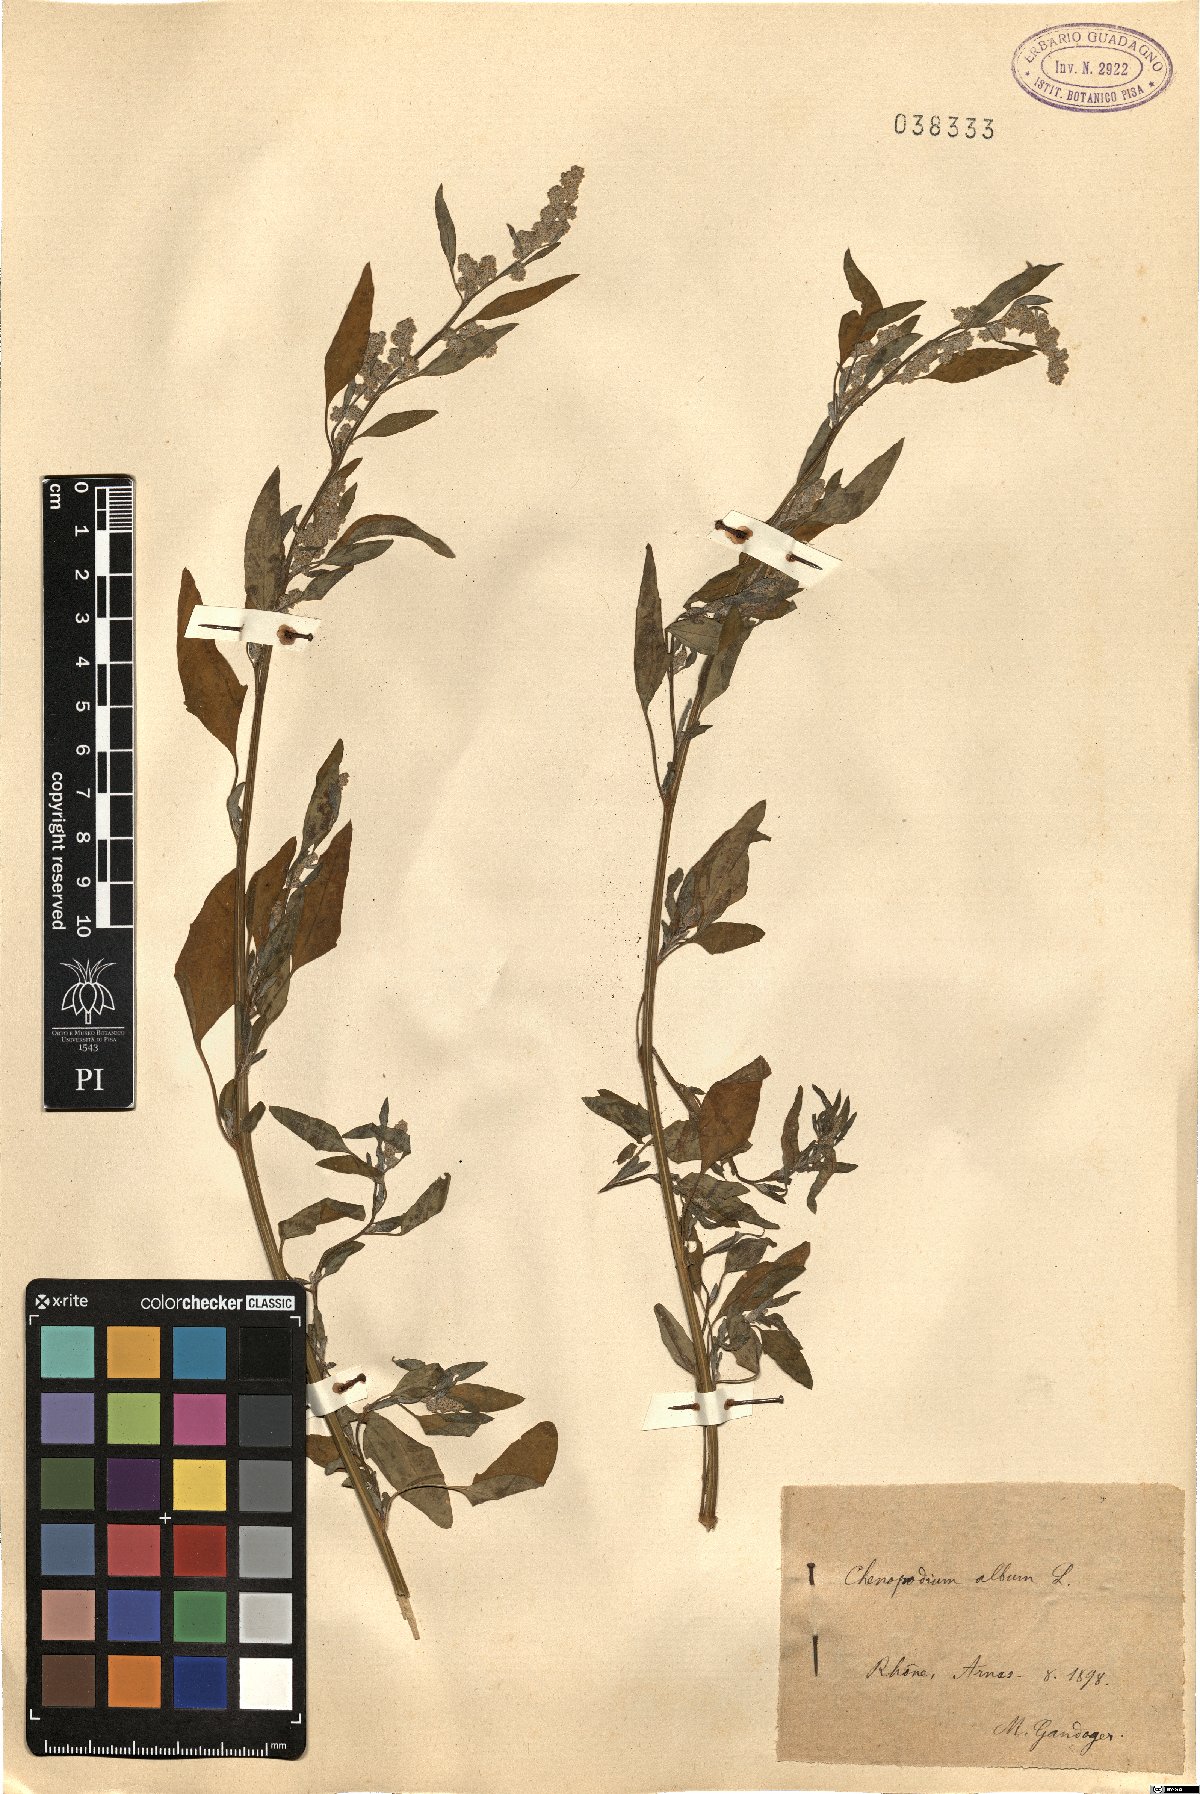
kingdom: Plantae
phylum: Tracheophyta
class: Magnoliopsida
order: Caryophyllales
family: Amaranthaceae
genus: Chenopodium
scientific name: Chenopodium album
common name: Fat-hen
